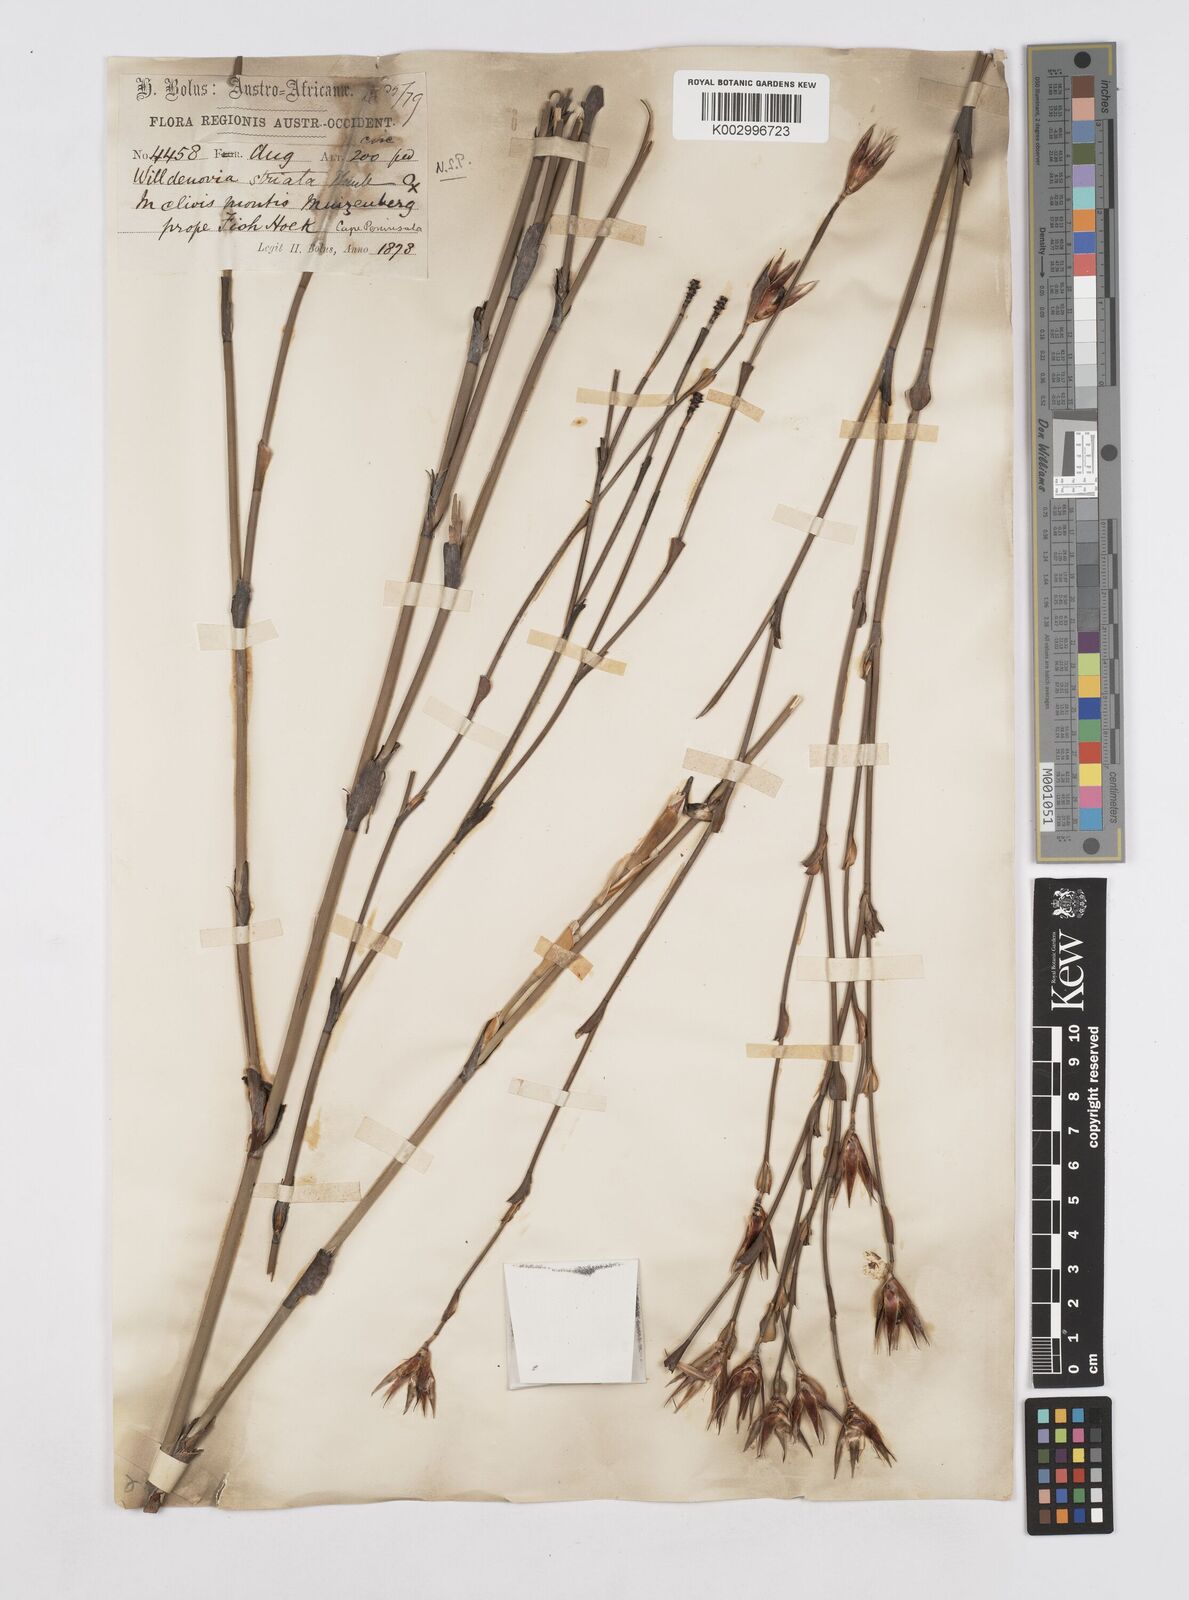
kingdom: Plantae
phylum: Tracheophyta
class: Liliopsida
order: Poales
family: Restionaceae
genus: Willdenowia
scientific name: Willdenowia incurvata
